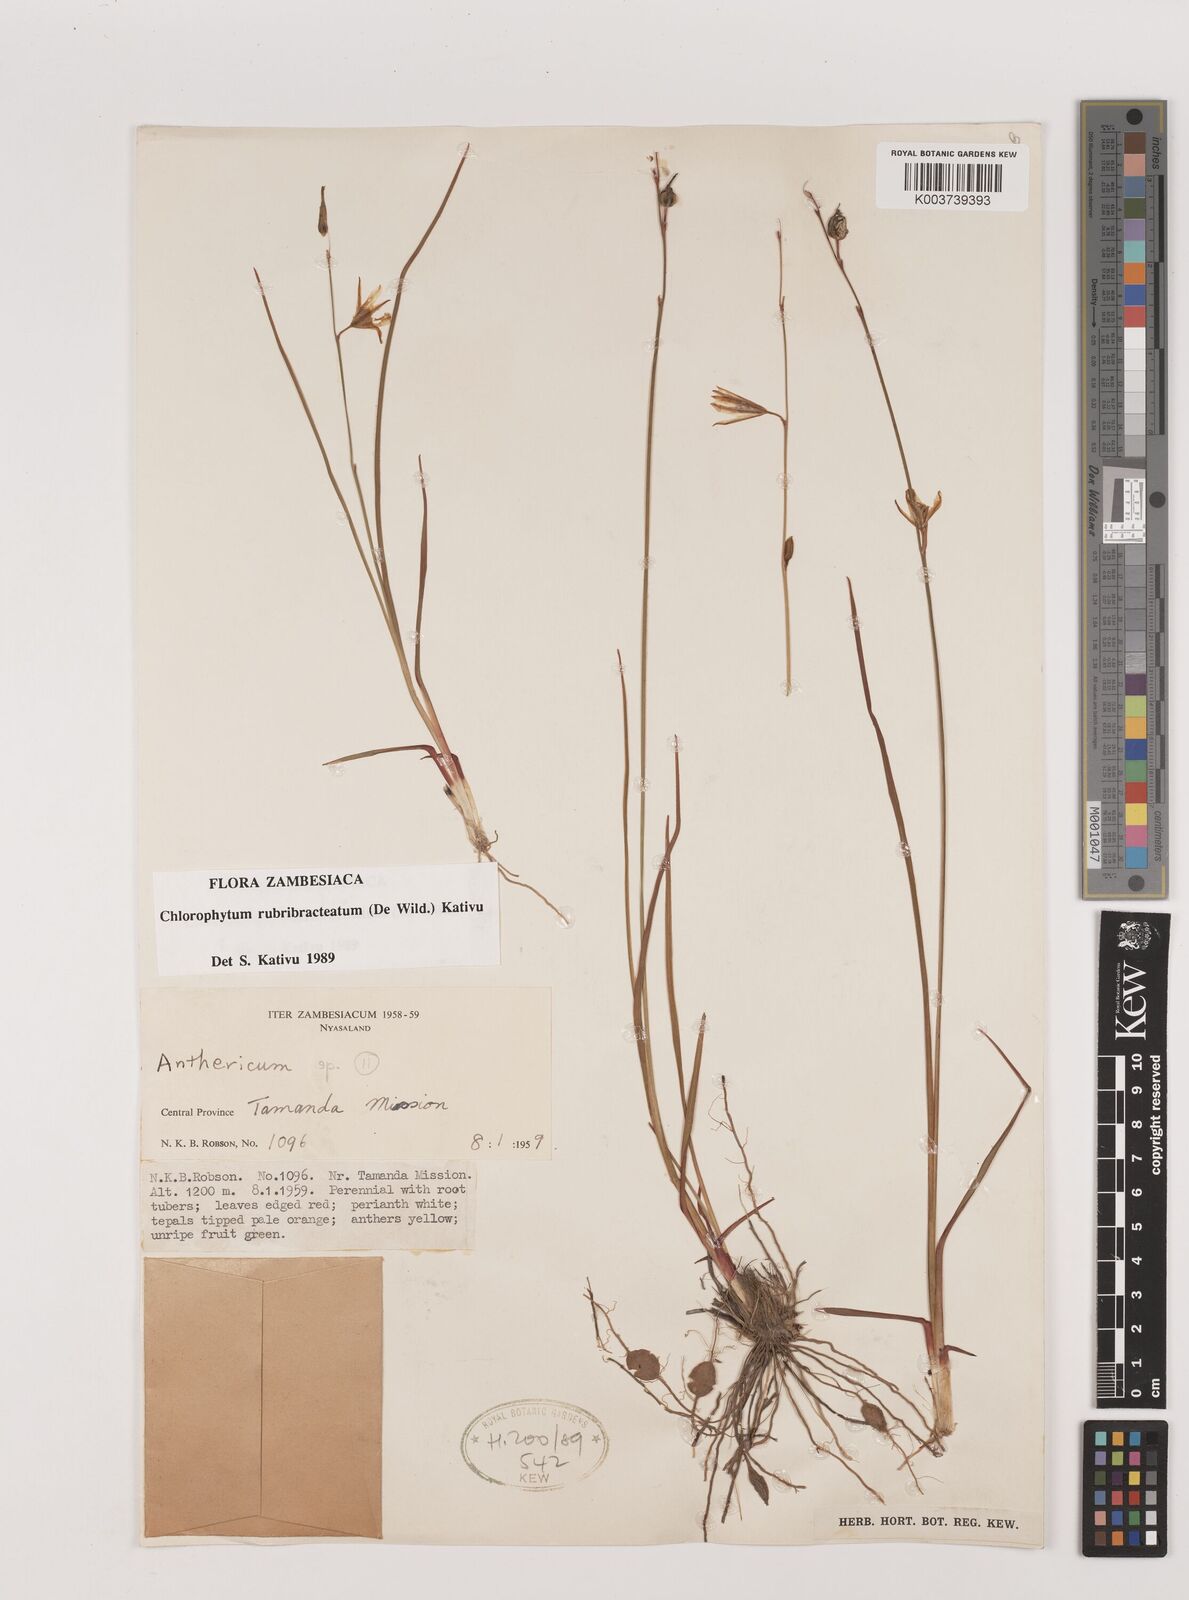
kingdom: Plantae
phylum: Tracheophyta
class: Liliopsida
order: Asparagales
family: Asparagaceae
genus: Chlorophytum
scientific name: Chlorophytum rubribracteatum
